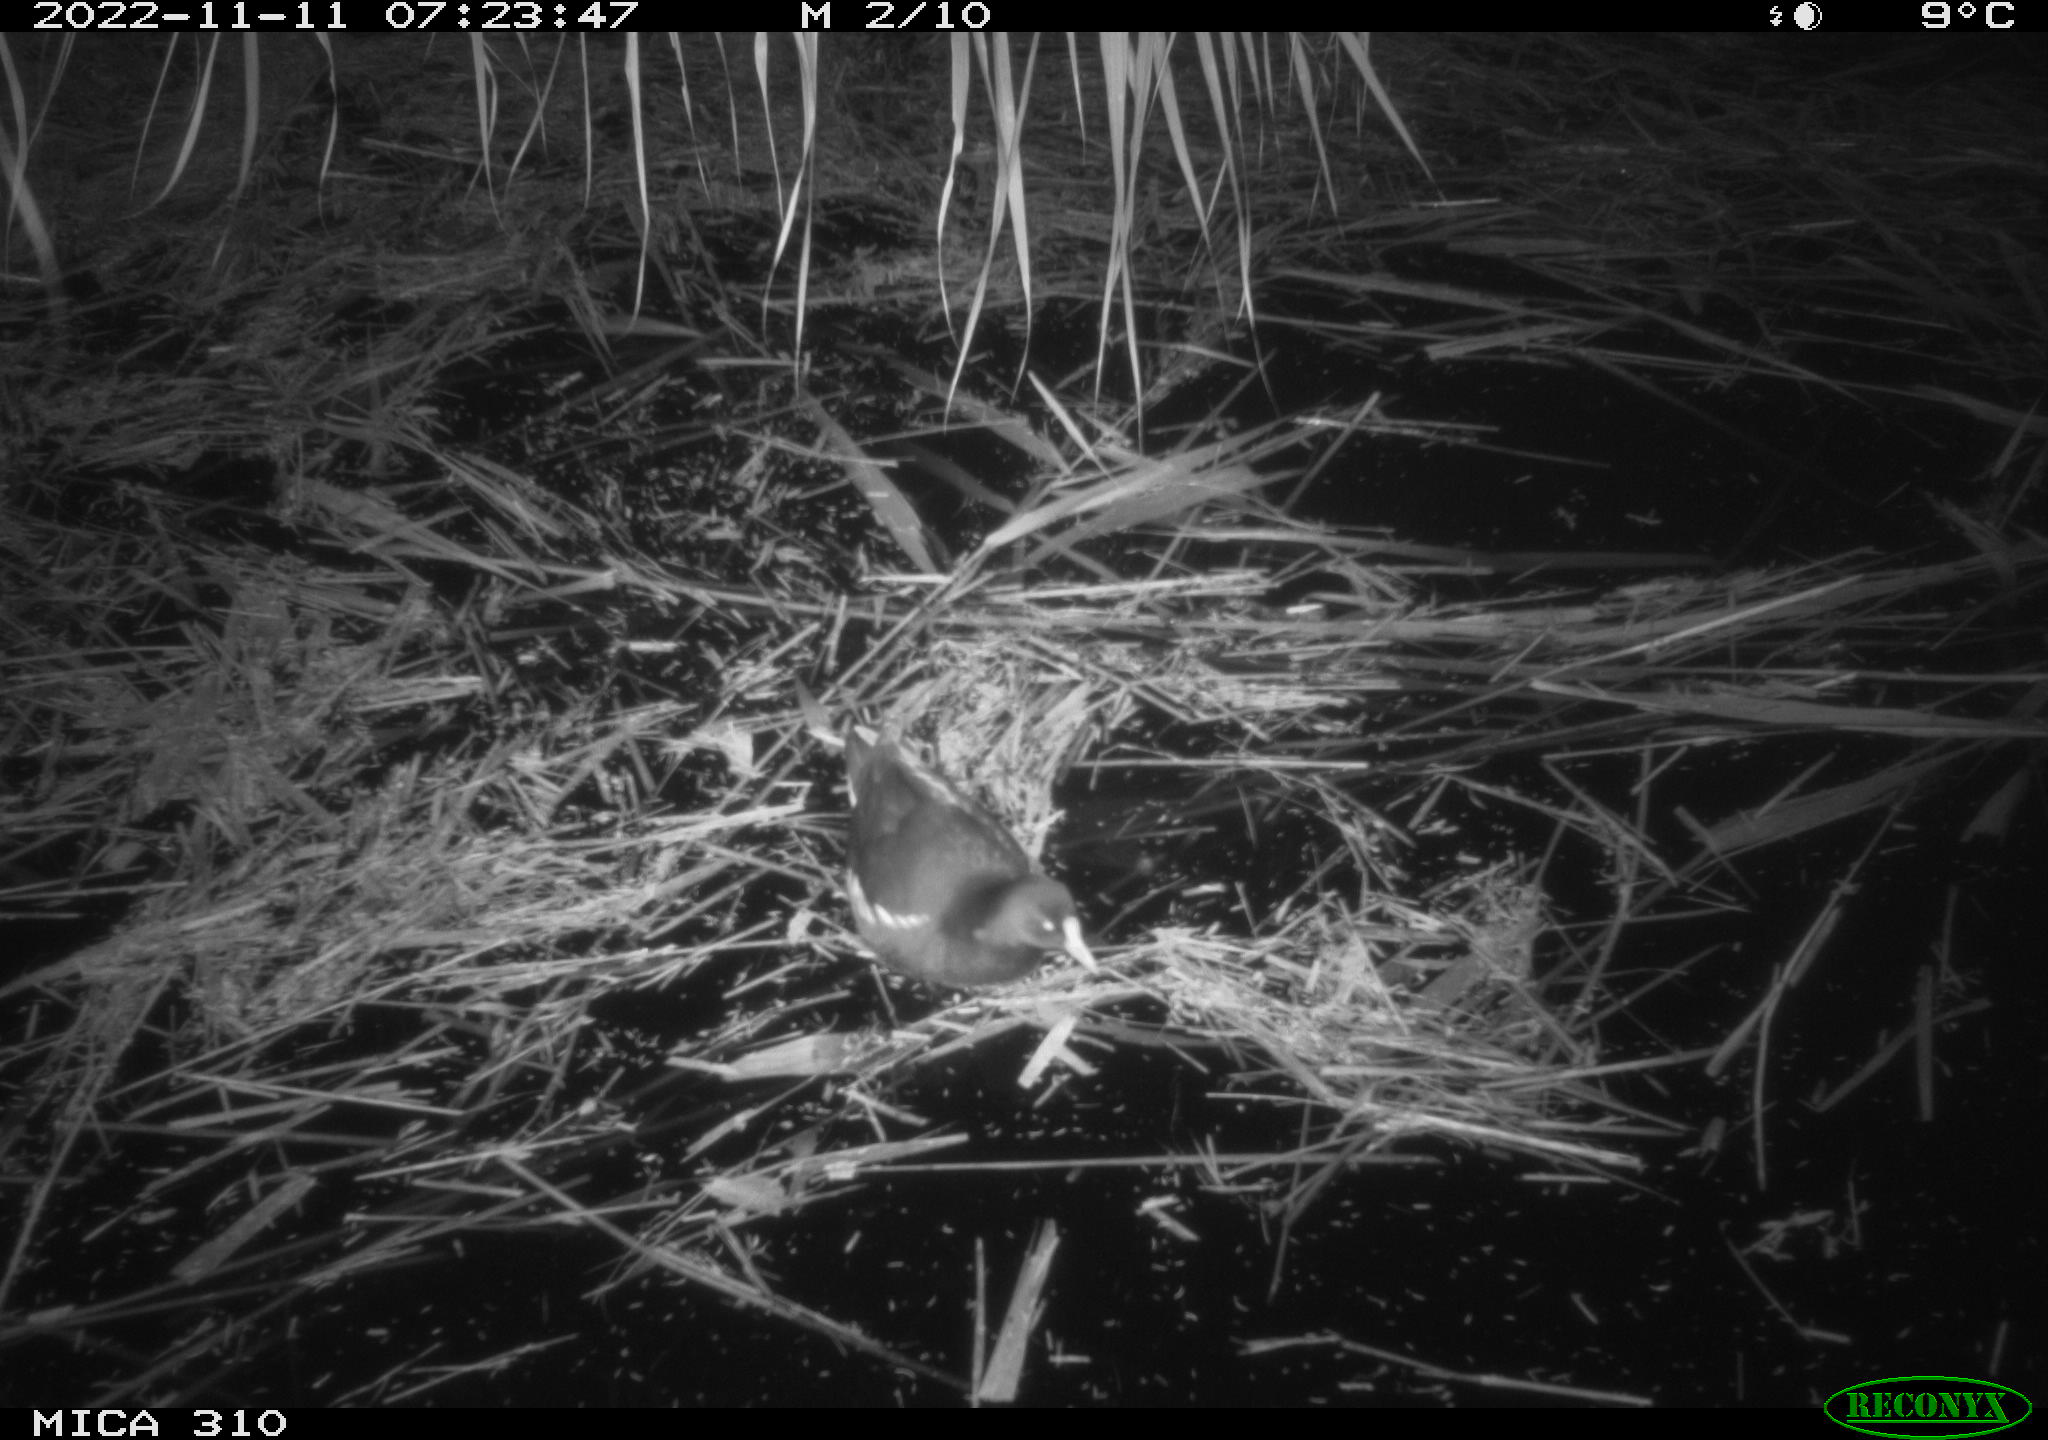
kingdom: Animalia
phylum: Chordata
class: Aves
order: Gruiformes
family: Rallidae
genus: Gallinula
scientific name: Gallinula chloropus
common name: Common moorhen
